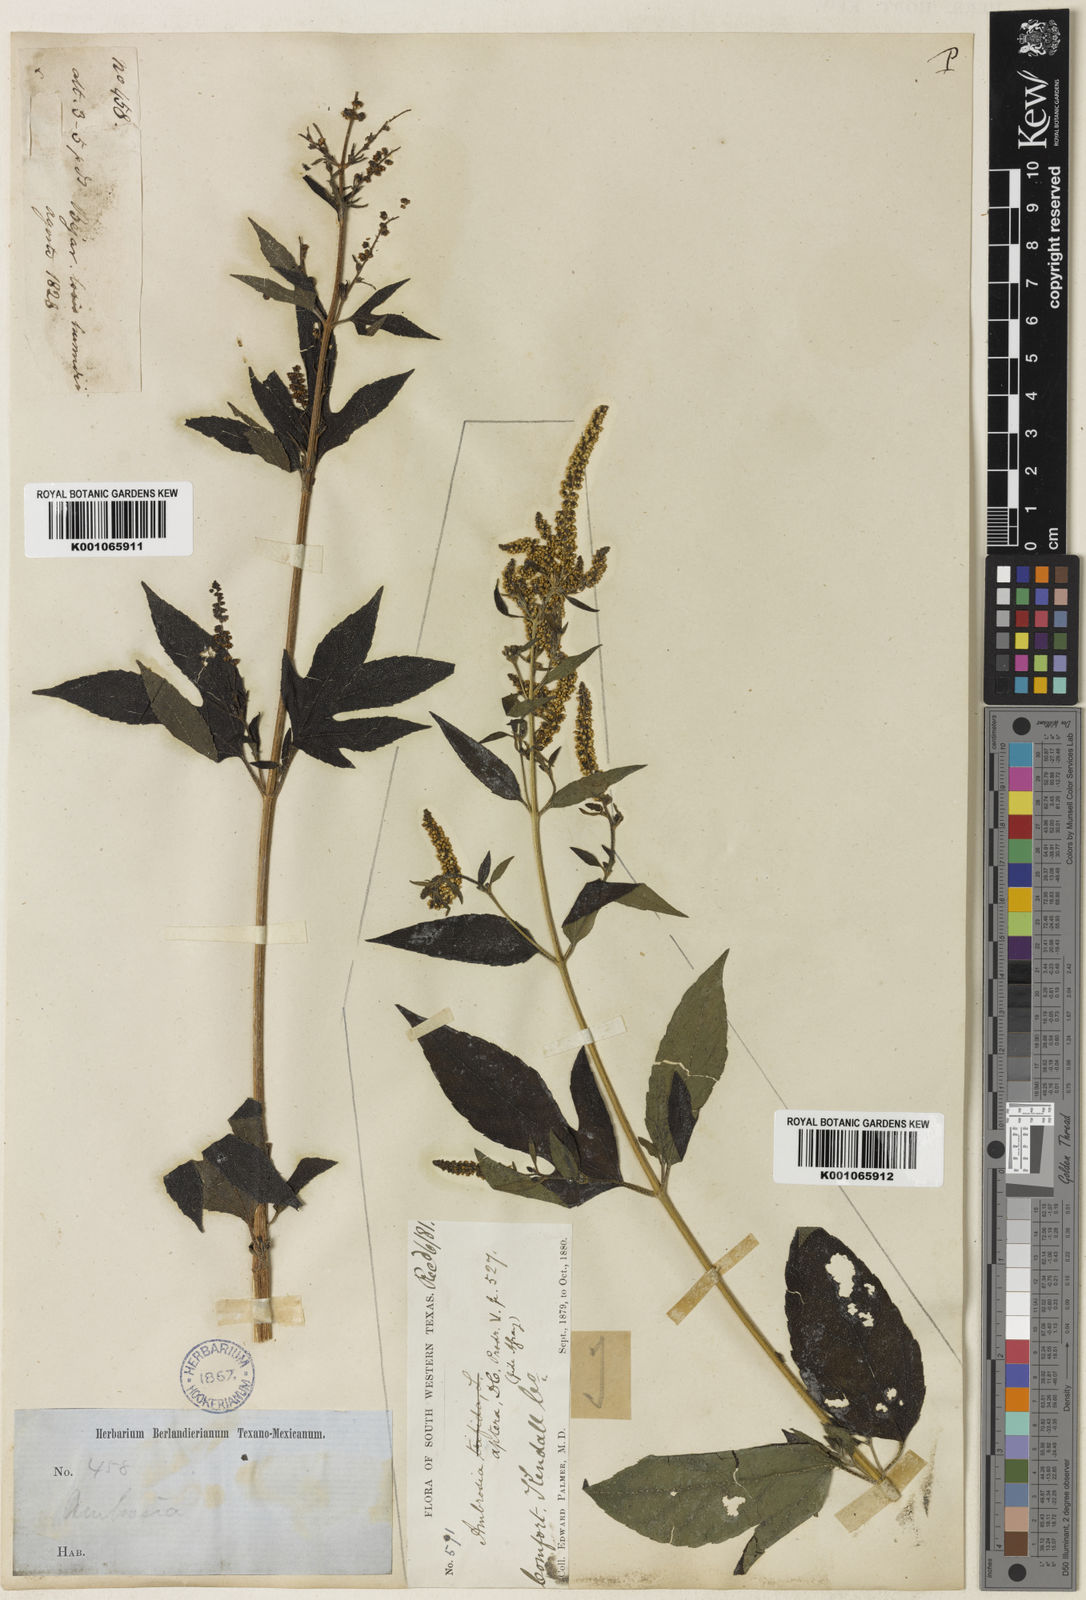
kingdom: Plantae
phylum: Tracheophyta
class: Magnoliopsida
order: Asterales
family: Asteraceae
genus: Ambrosia
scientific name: Ambrosia trifida
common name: Giant ragweed
